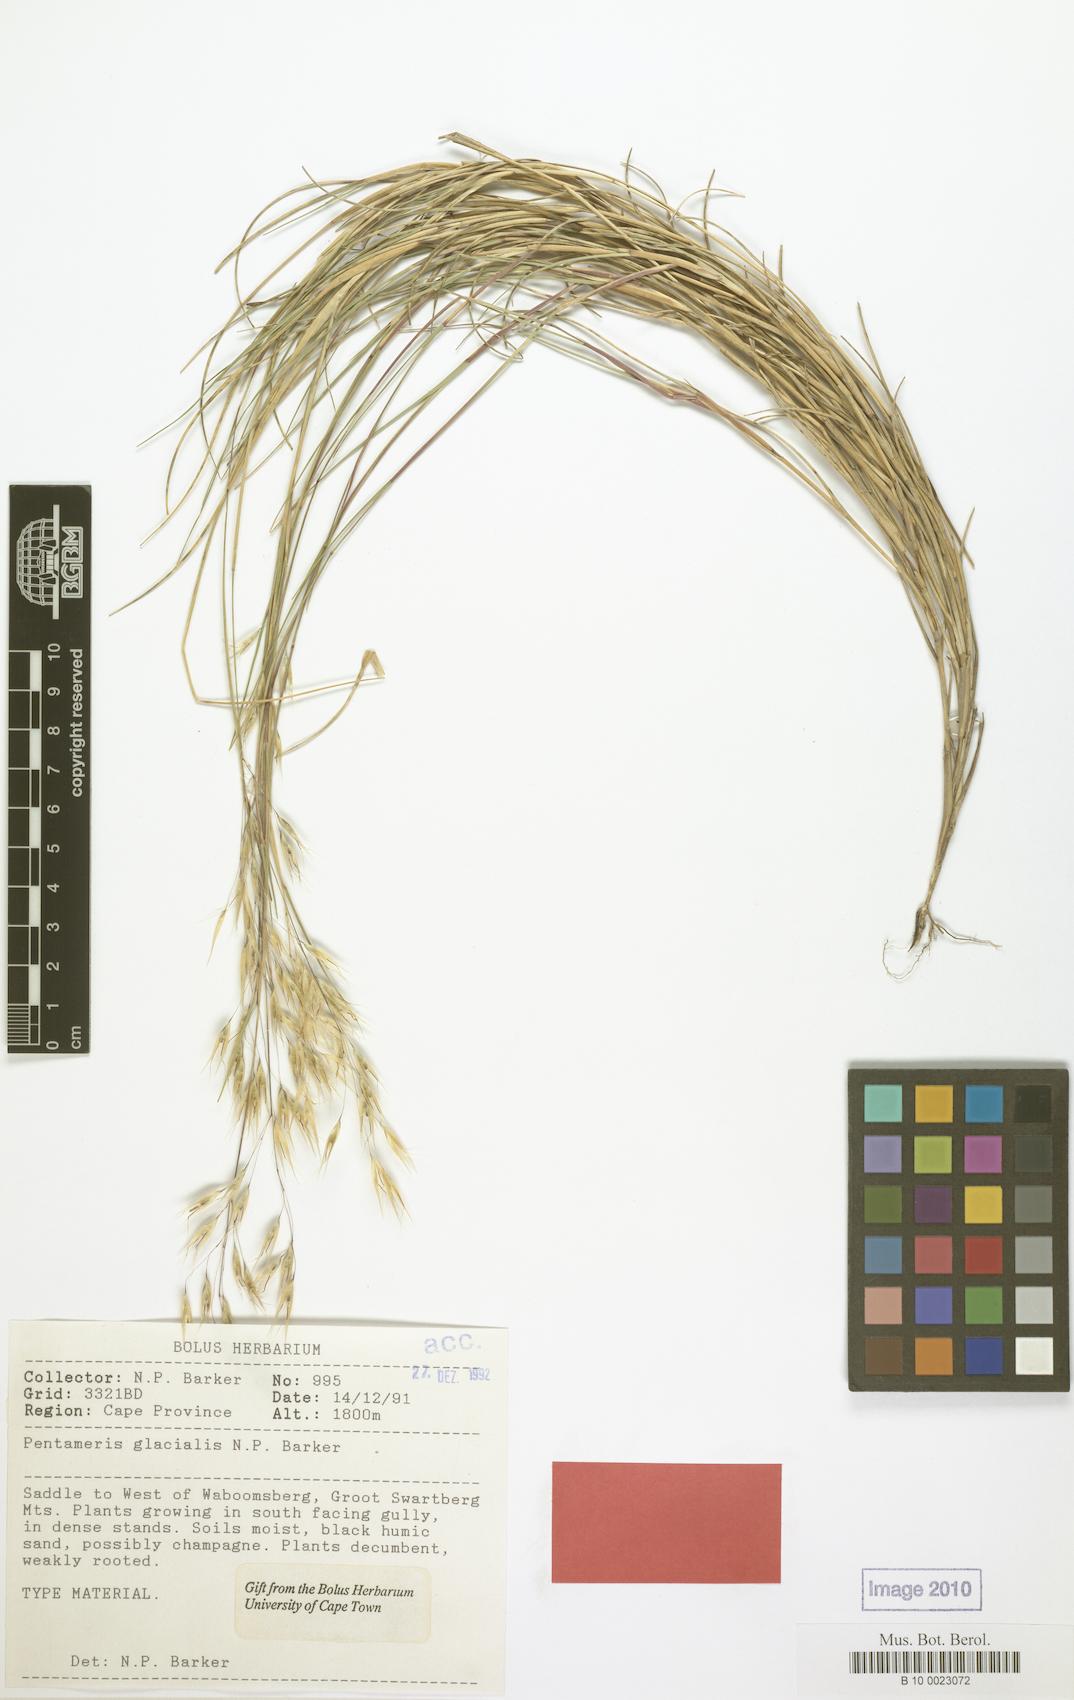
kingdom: Plantae
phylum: Tracheophyta
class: Liliopsida
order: Poales
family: Poaceae
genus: Pentameris
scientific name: Pentameris glacialis
